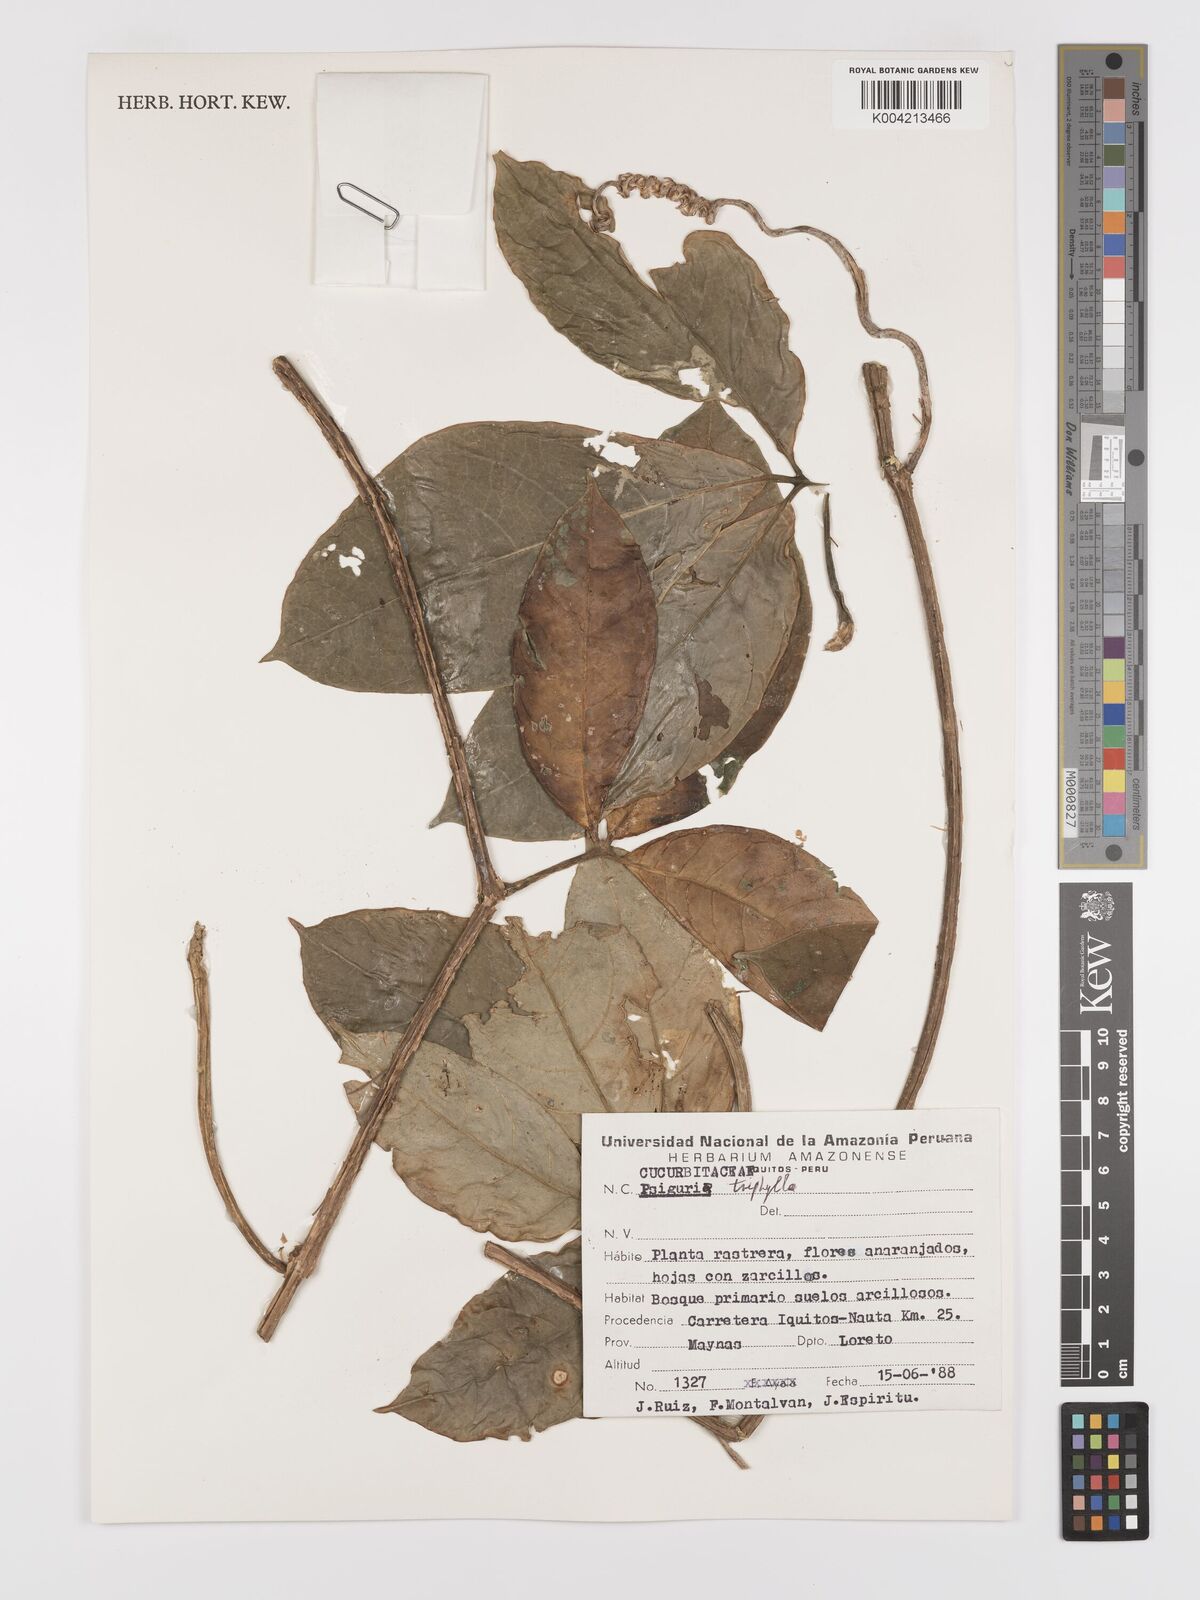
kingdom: Plantae
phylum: Tracheophyta
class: Magnoliopsida
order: Cucurbitales
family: Cucurbitaceae
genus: Psiguria
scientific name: Psiguria triphylla
